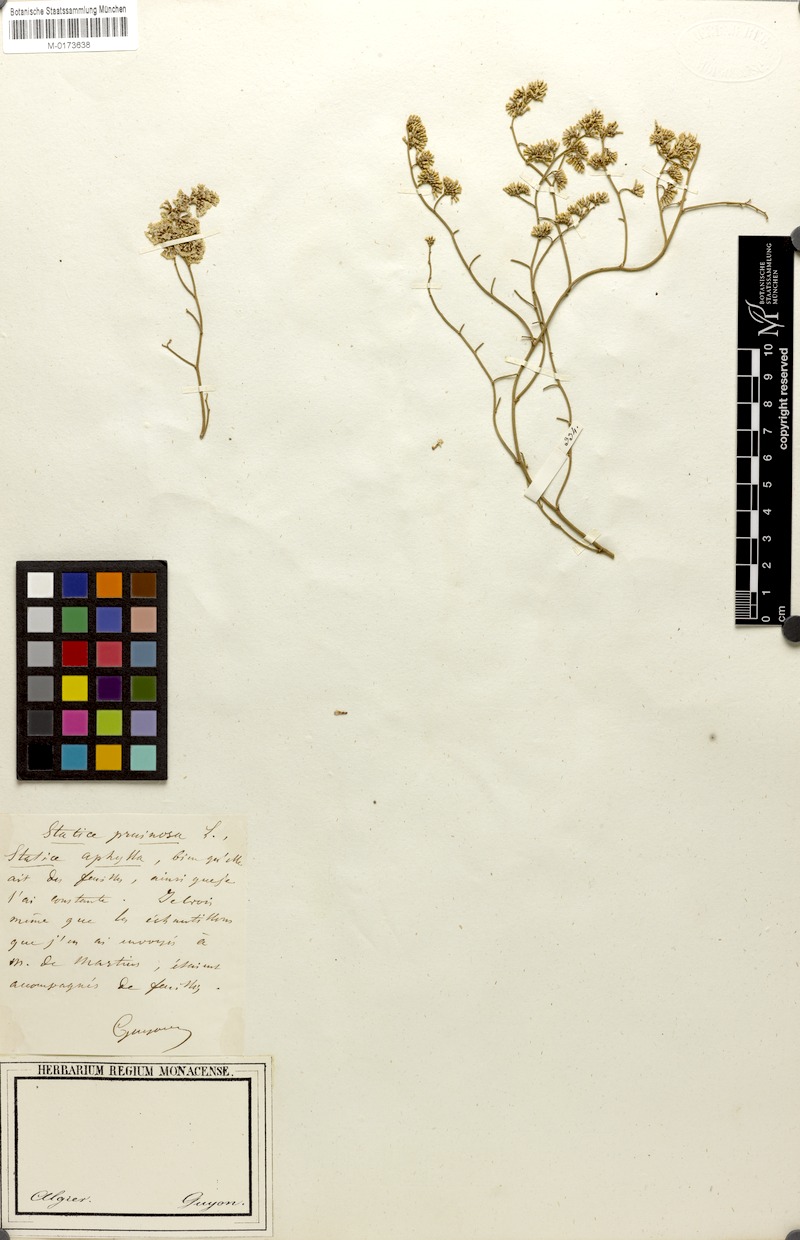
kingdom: Plantae
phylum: Tracheophyta
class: Magnoliopsida
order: Caryophyllales
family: Plumbaginaceae
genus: Limonium
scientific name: Limonium tuberculatum
